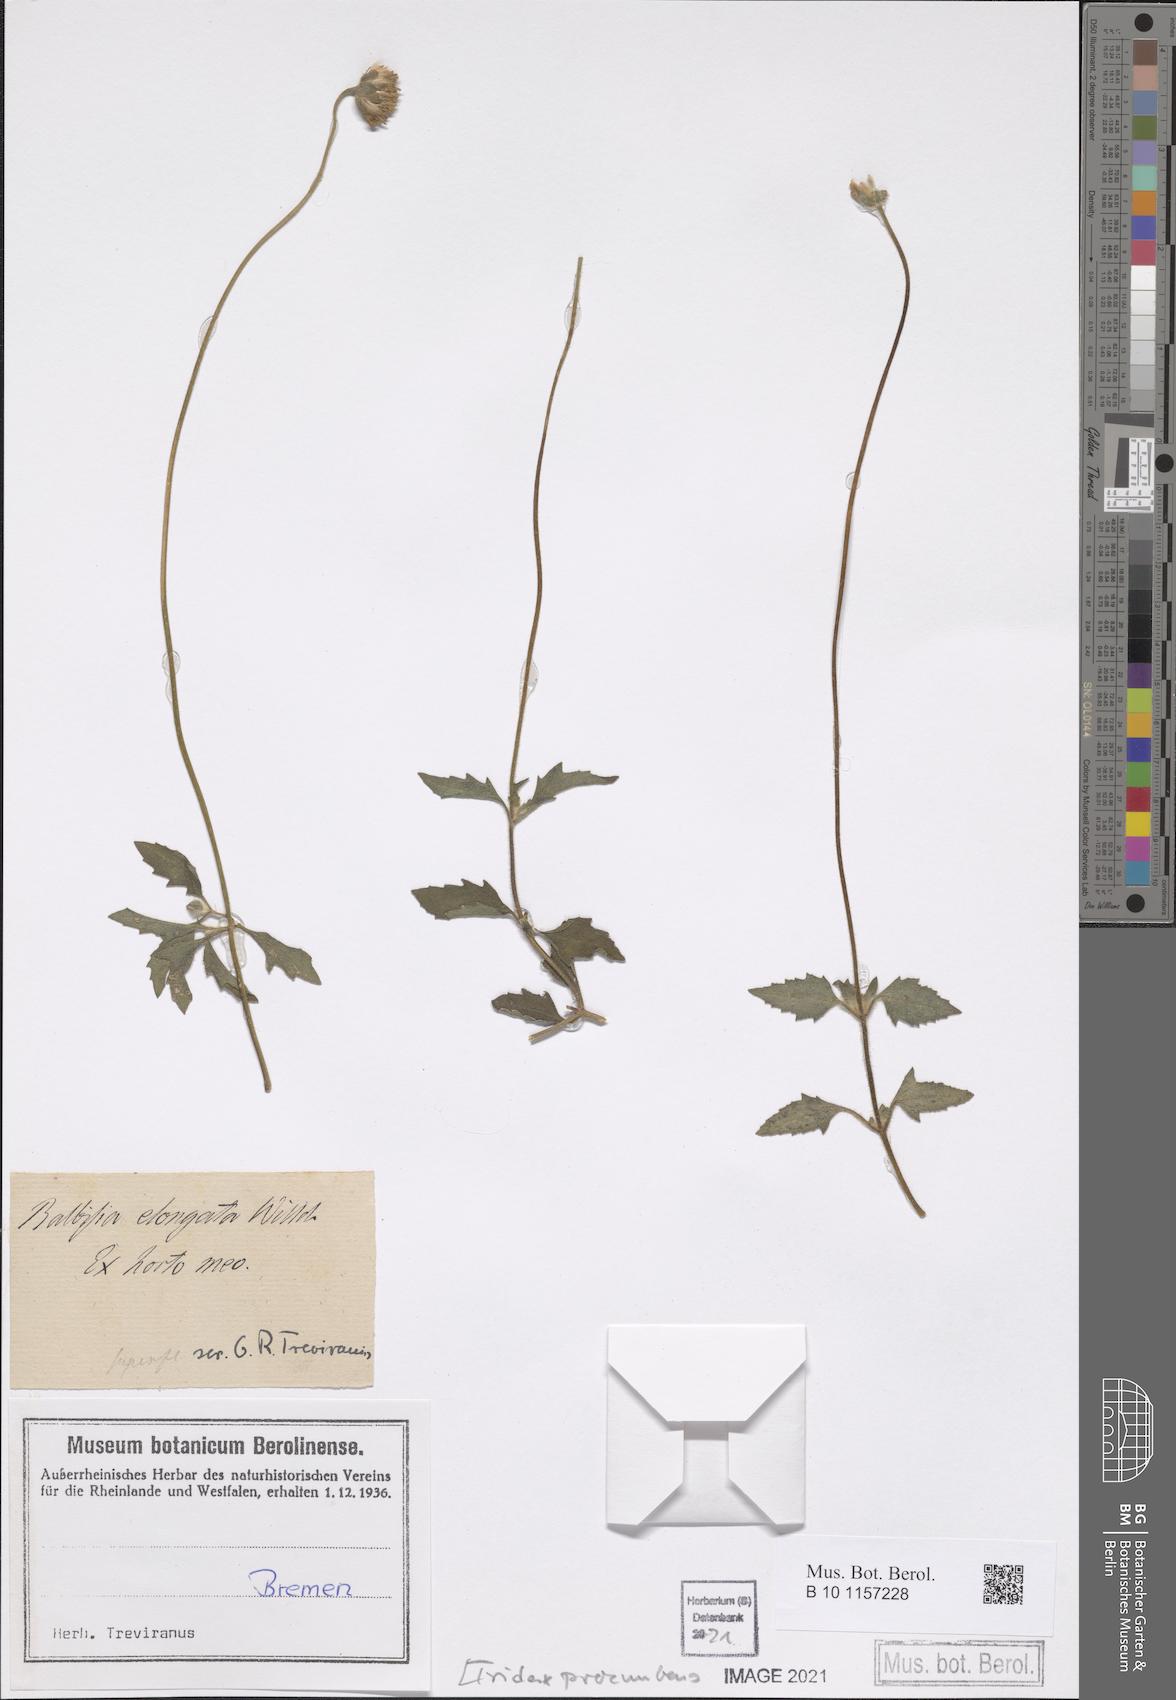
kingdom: Plantae
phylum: Tracheophyta
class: Magnoliopsida
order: Asterales
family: Asteraceae
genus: Tridax
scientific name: Tridax procumbens
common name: Coatbuttons
